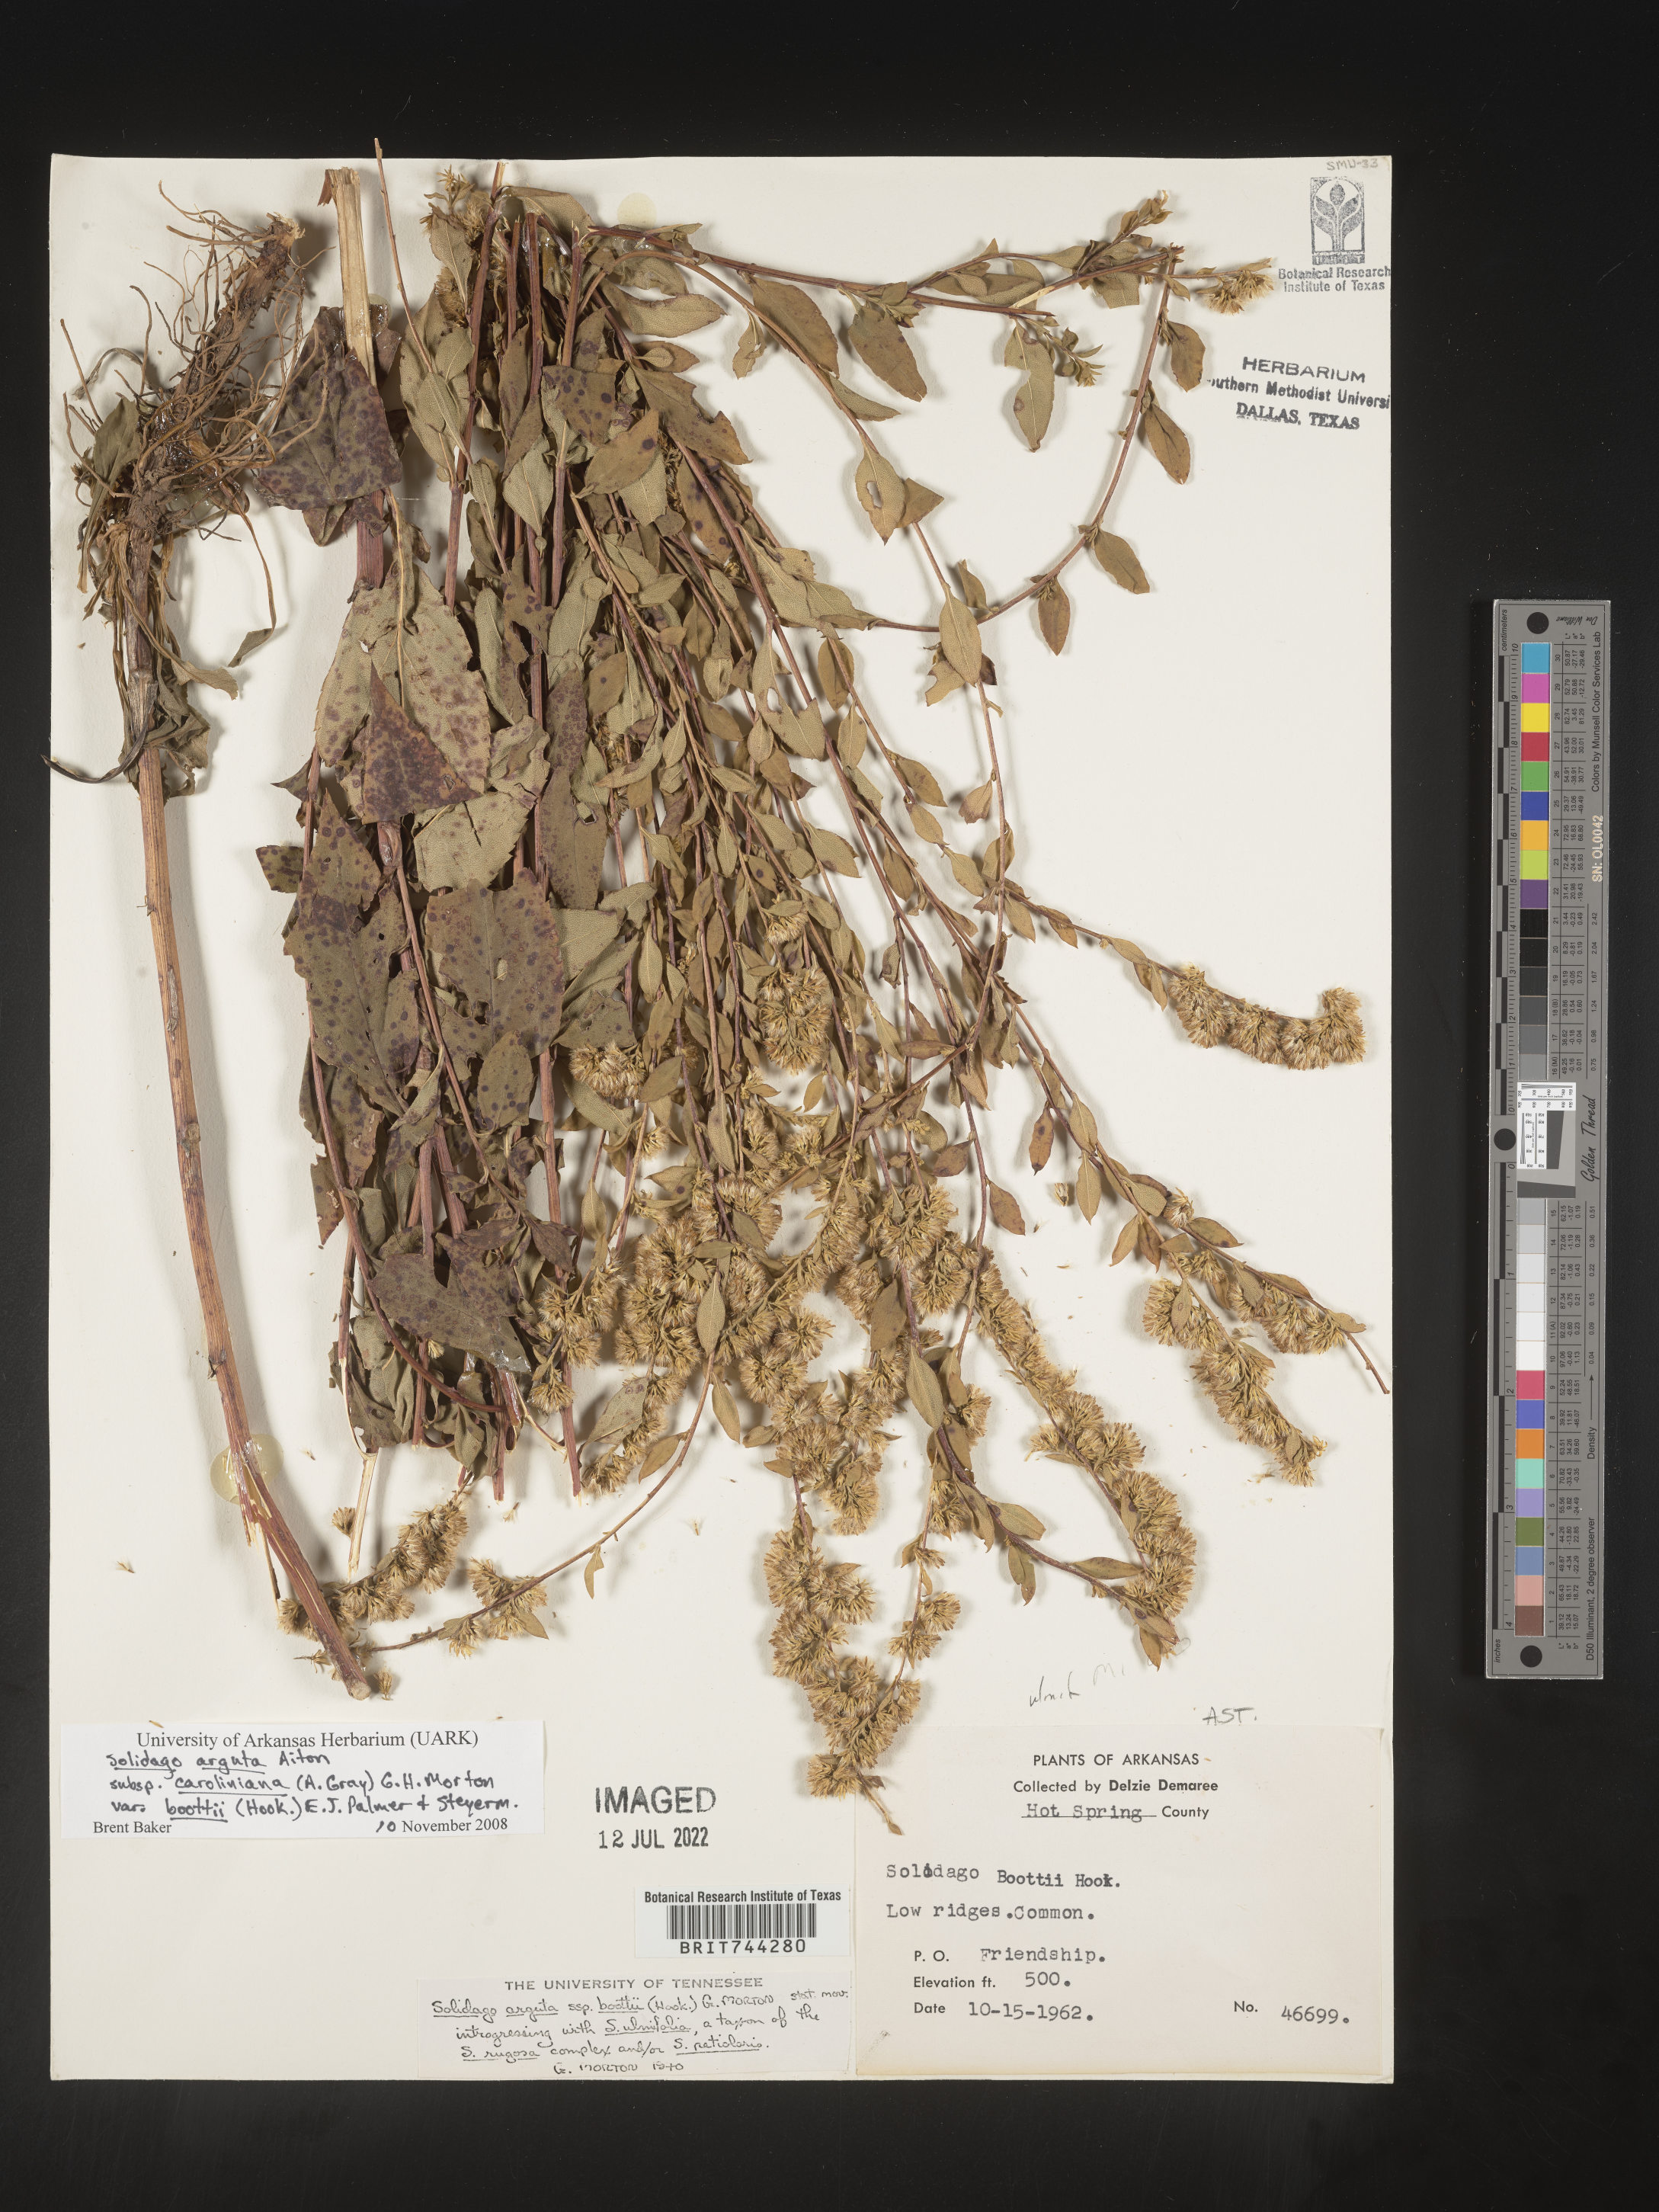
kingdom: Plantae
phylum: Tracheophyta
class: Magnoliopsida
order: Asterales
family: Asteraceae
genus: Solidago
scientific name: Solidago arguta
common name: Atlantic goldenrod
